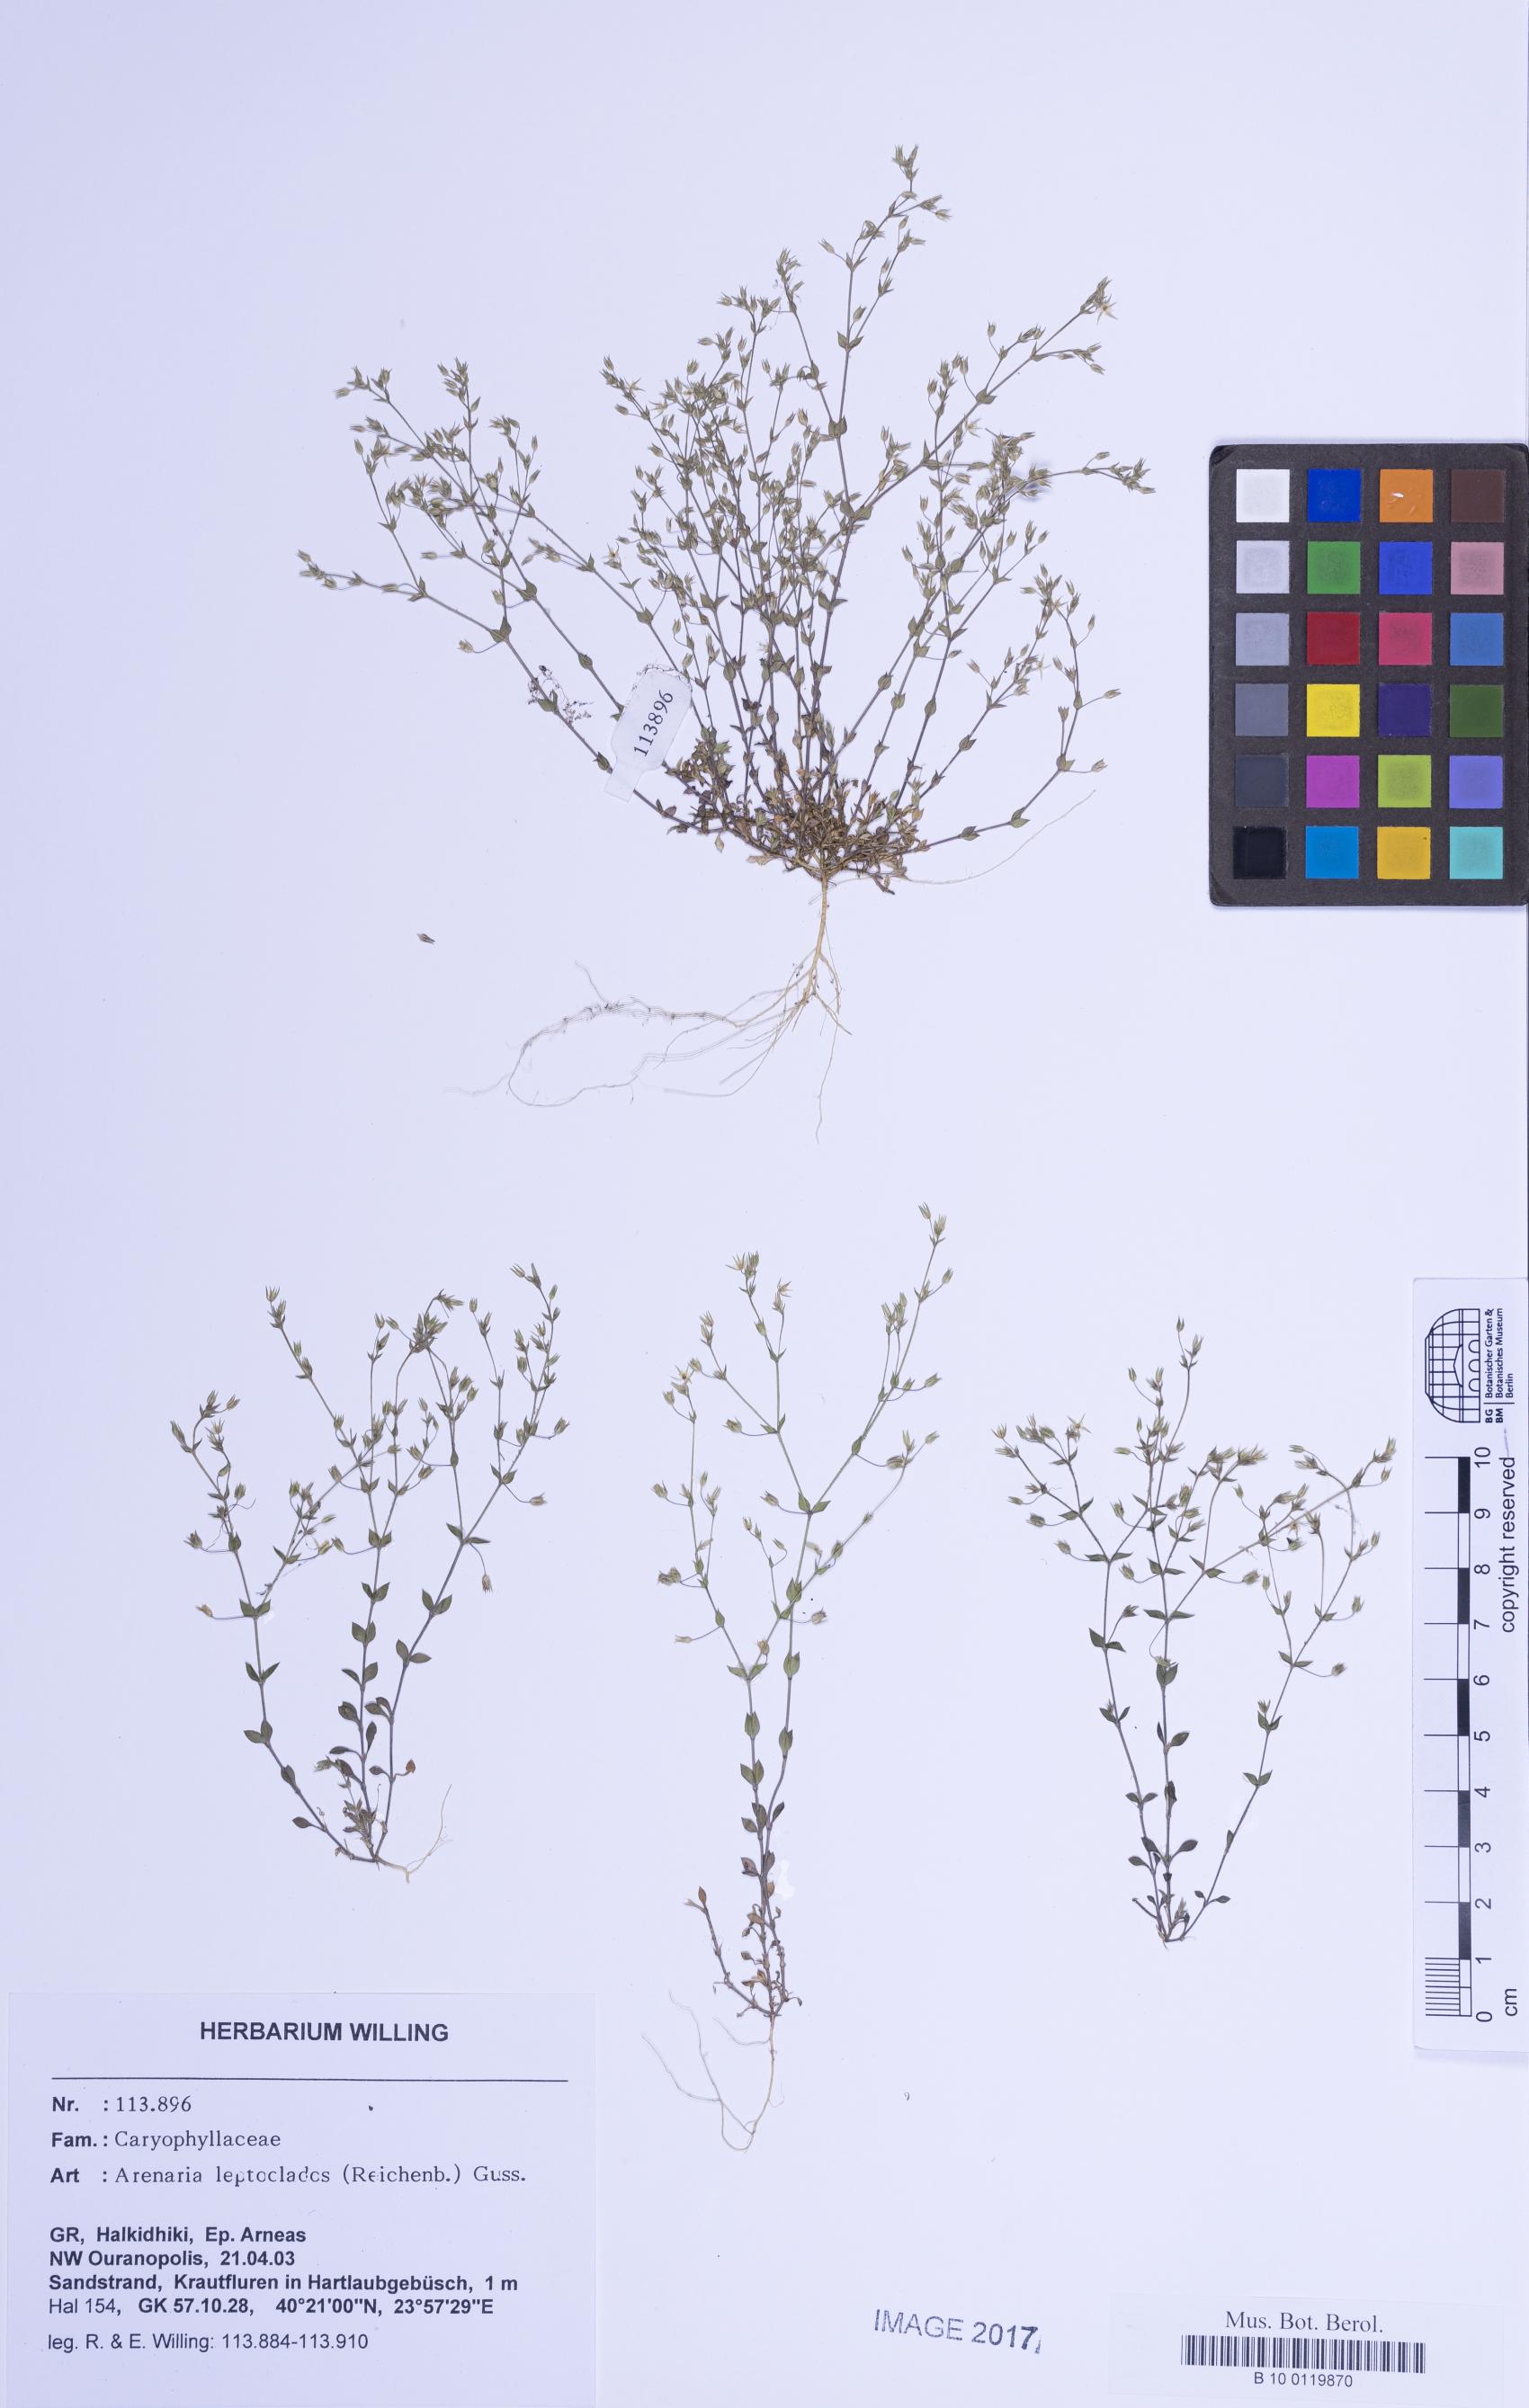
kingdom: Plantae
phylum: Tracheophyta
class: Magnoliopsida
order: Caryophyllales
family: Caryophyllaceae
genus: Arenaria
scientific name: Arenaria leptoclados
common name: Thyme-leaved sandwort
